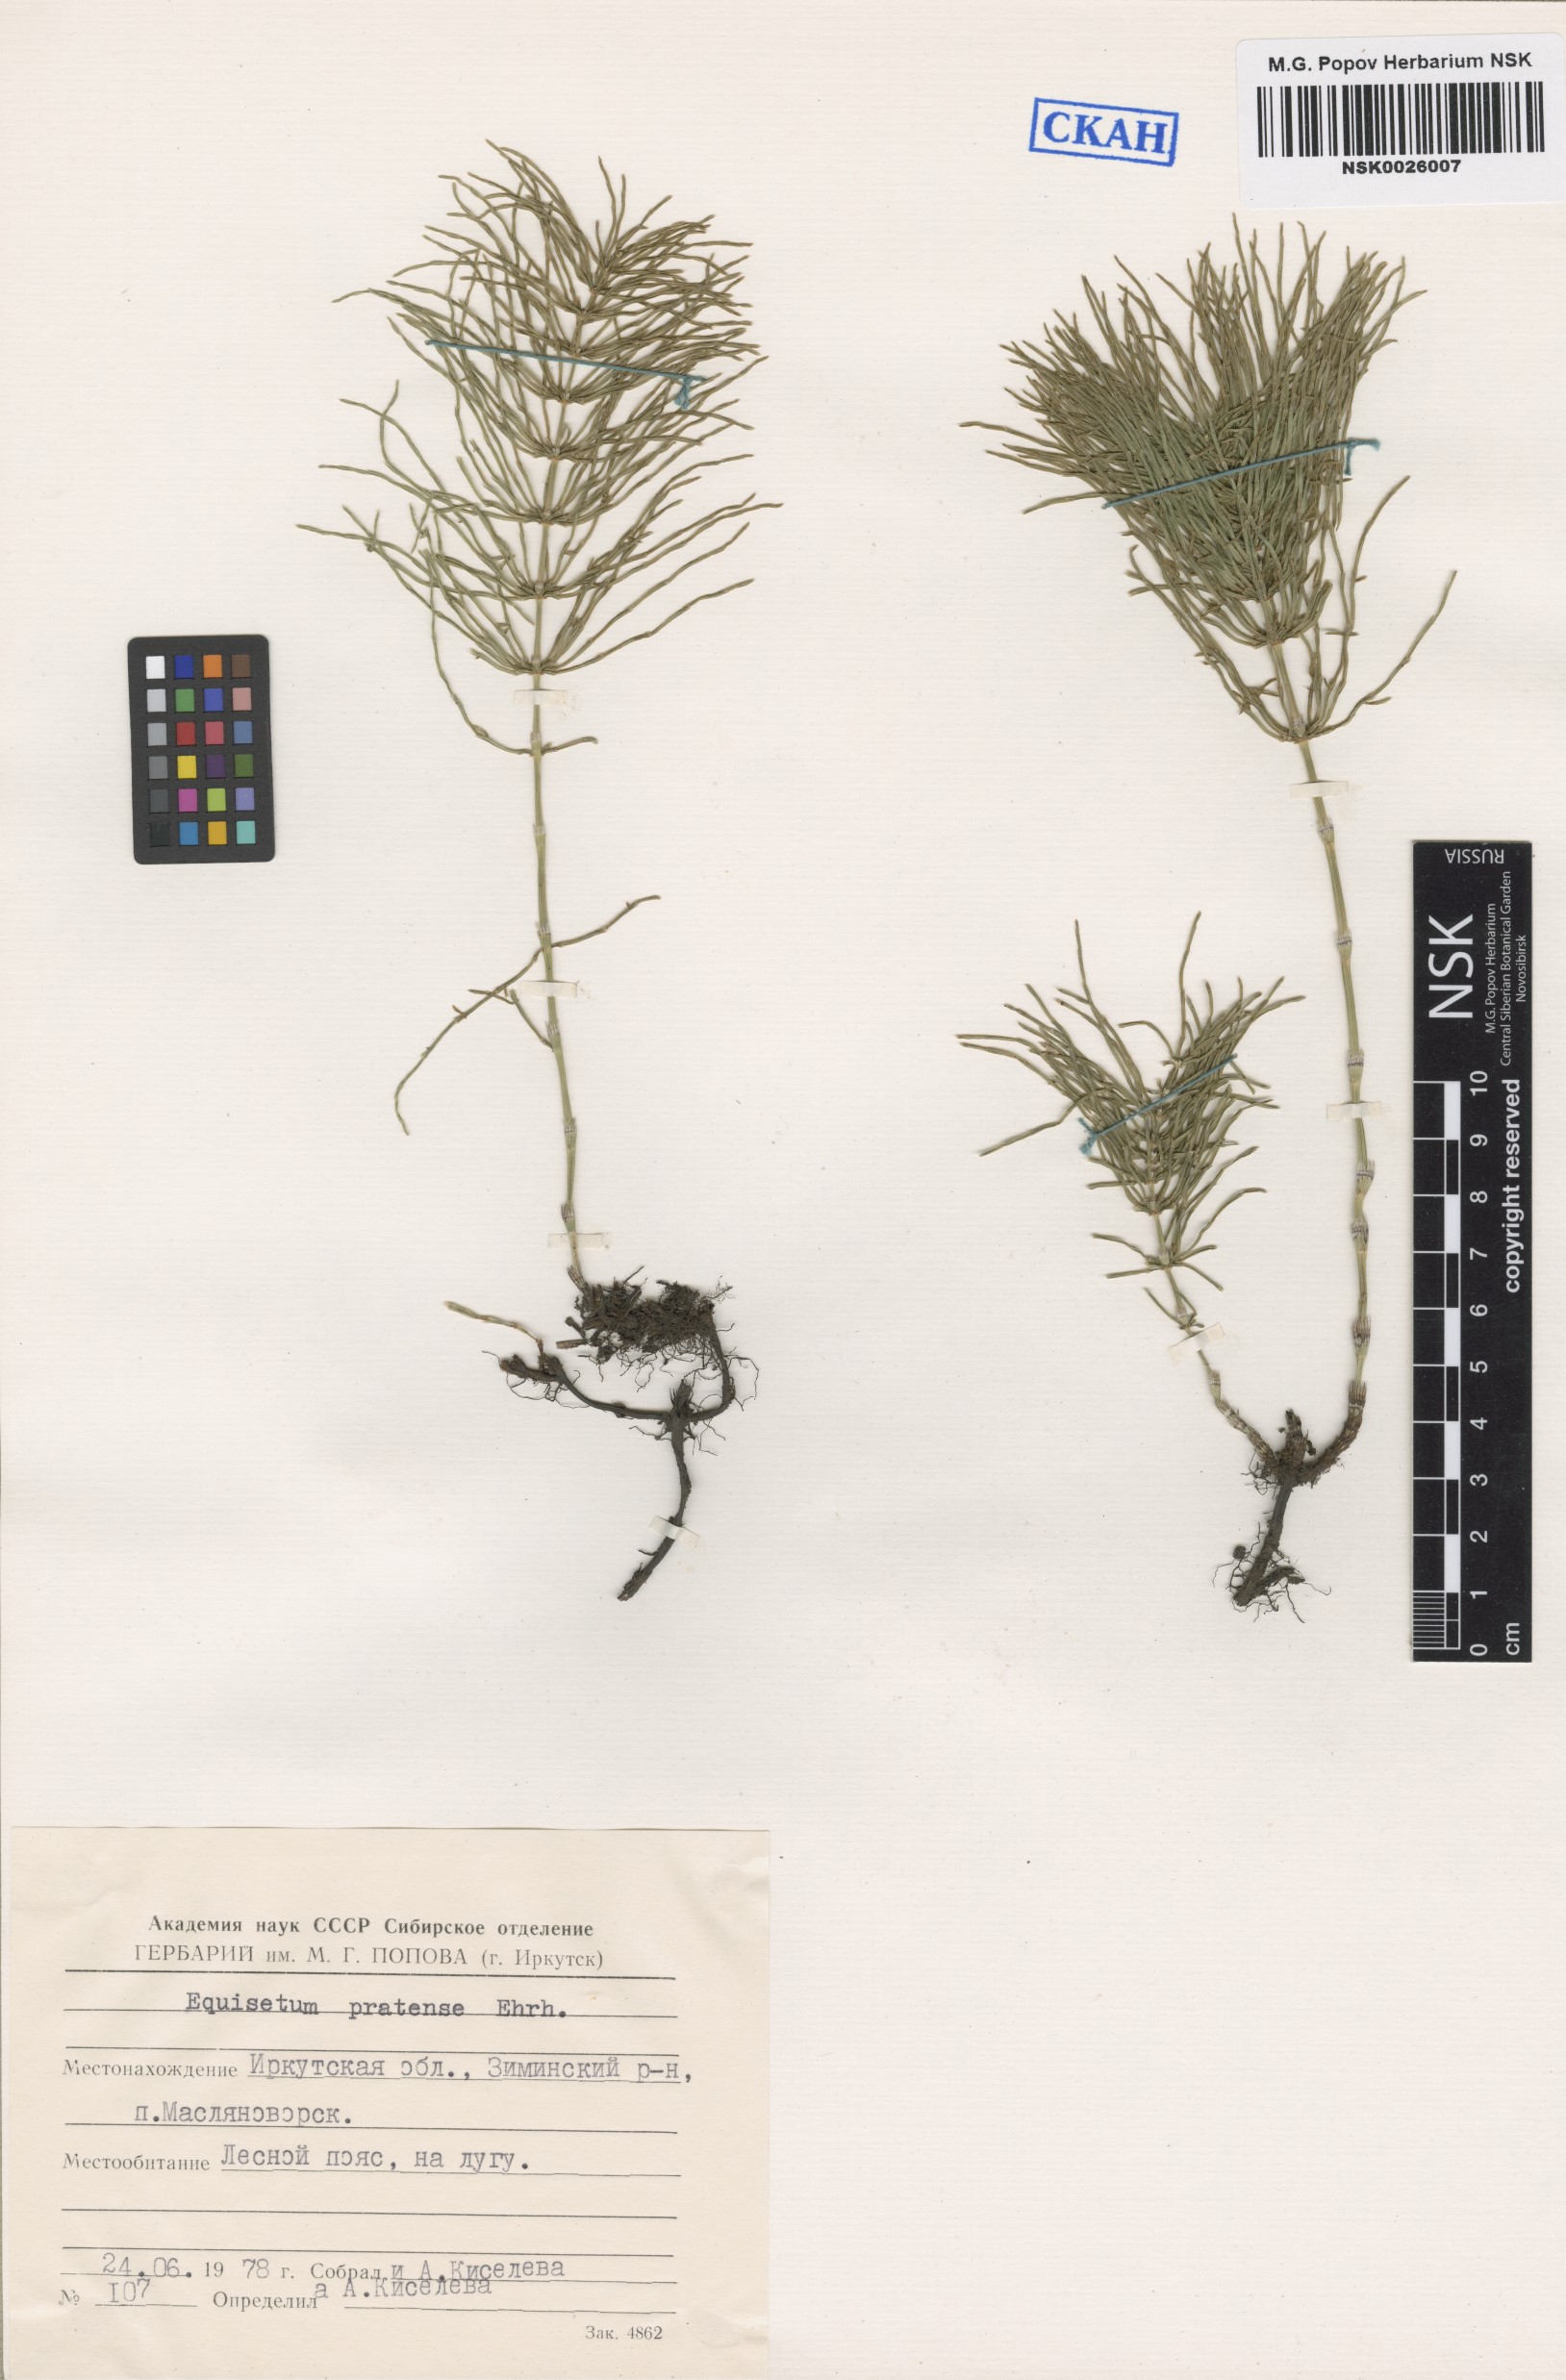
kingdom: Plantae
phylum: Tracheophyta
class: Polypodiopsida
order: Equisetales
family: Equisetaceae
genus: Equisetum
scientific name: Equisetum pratense
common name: Meadow horsetail
